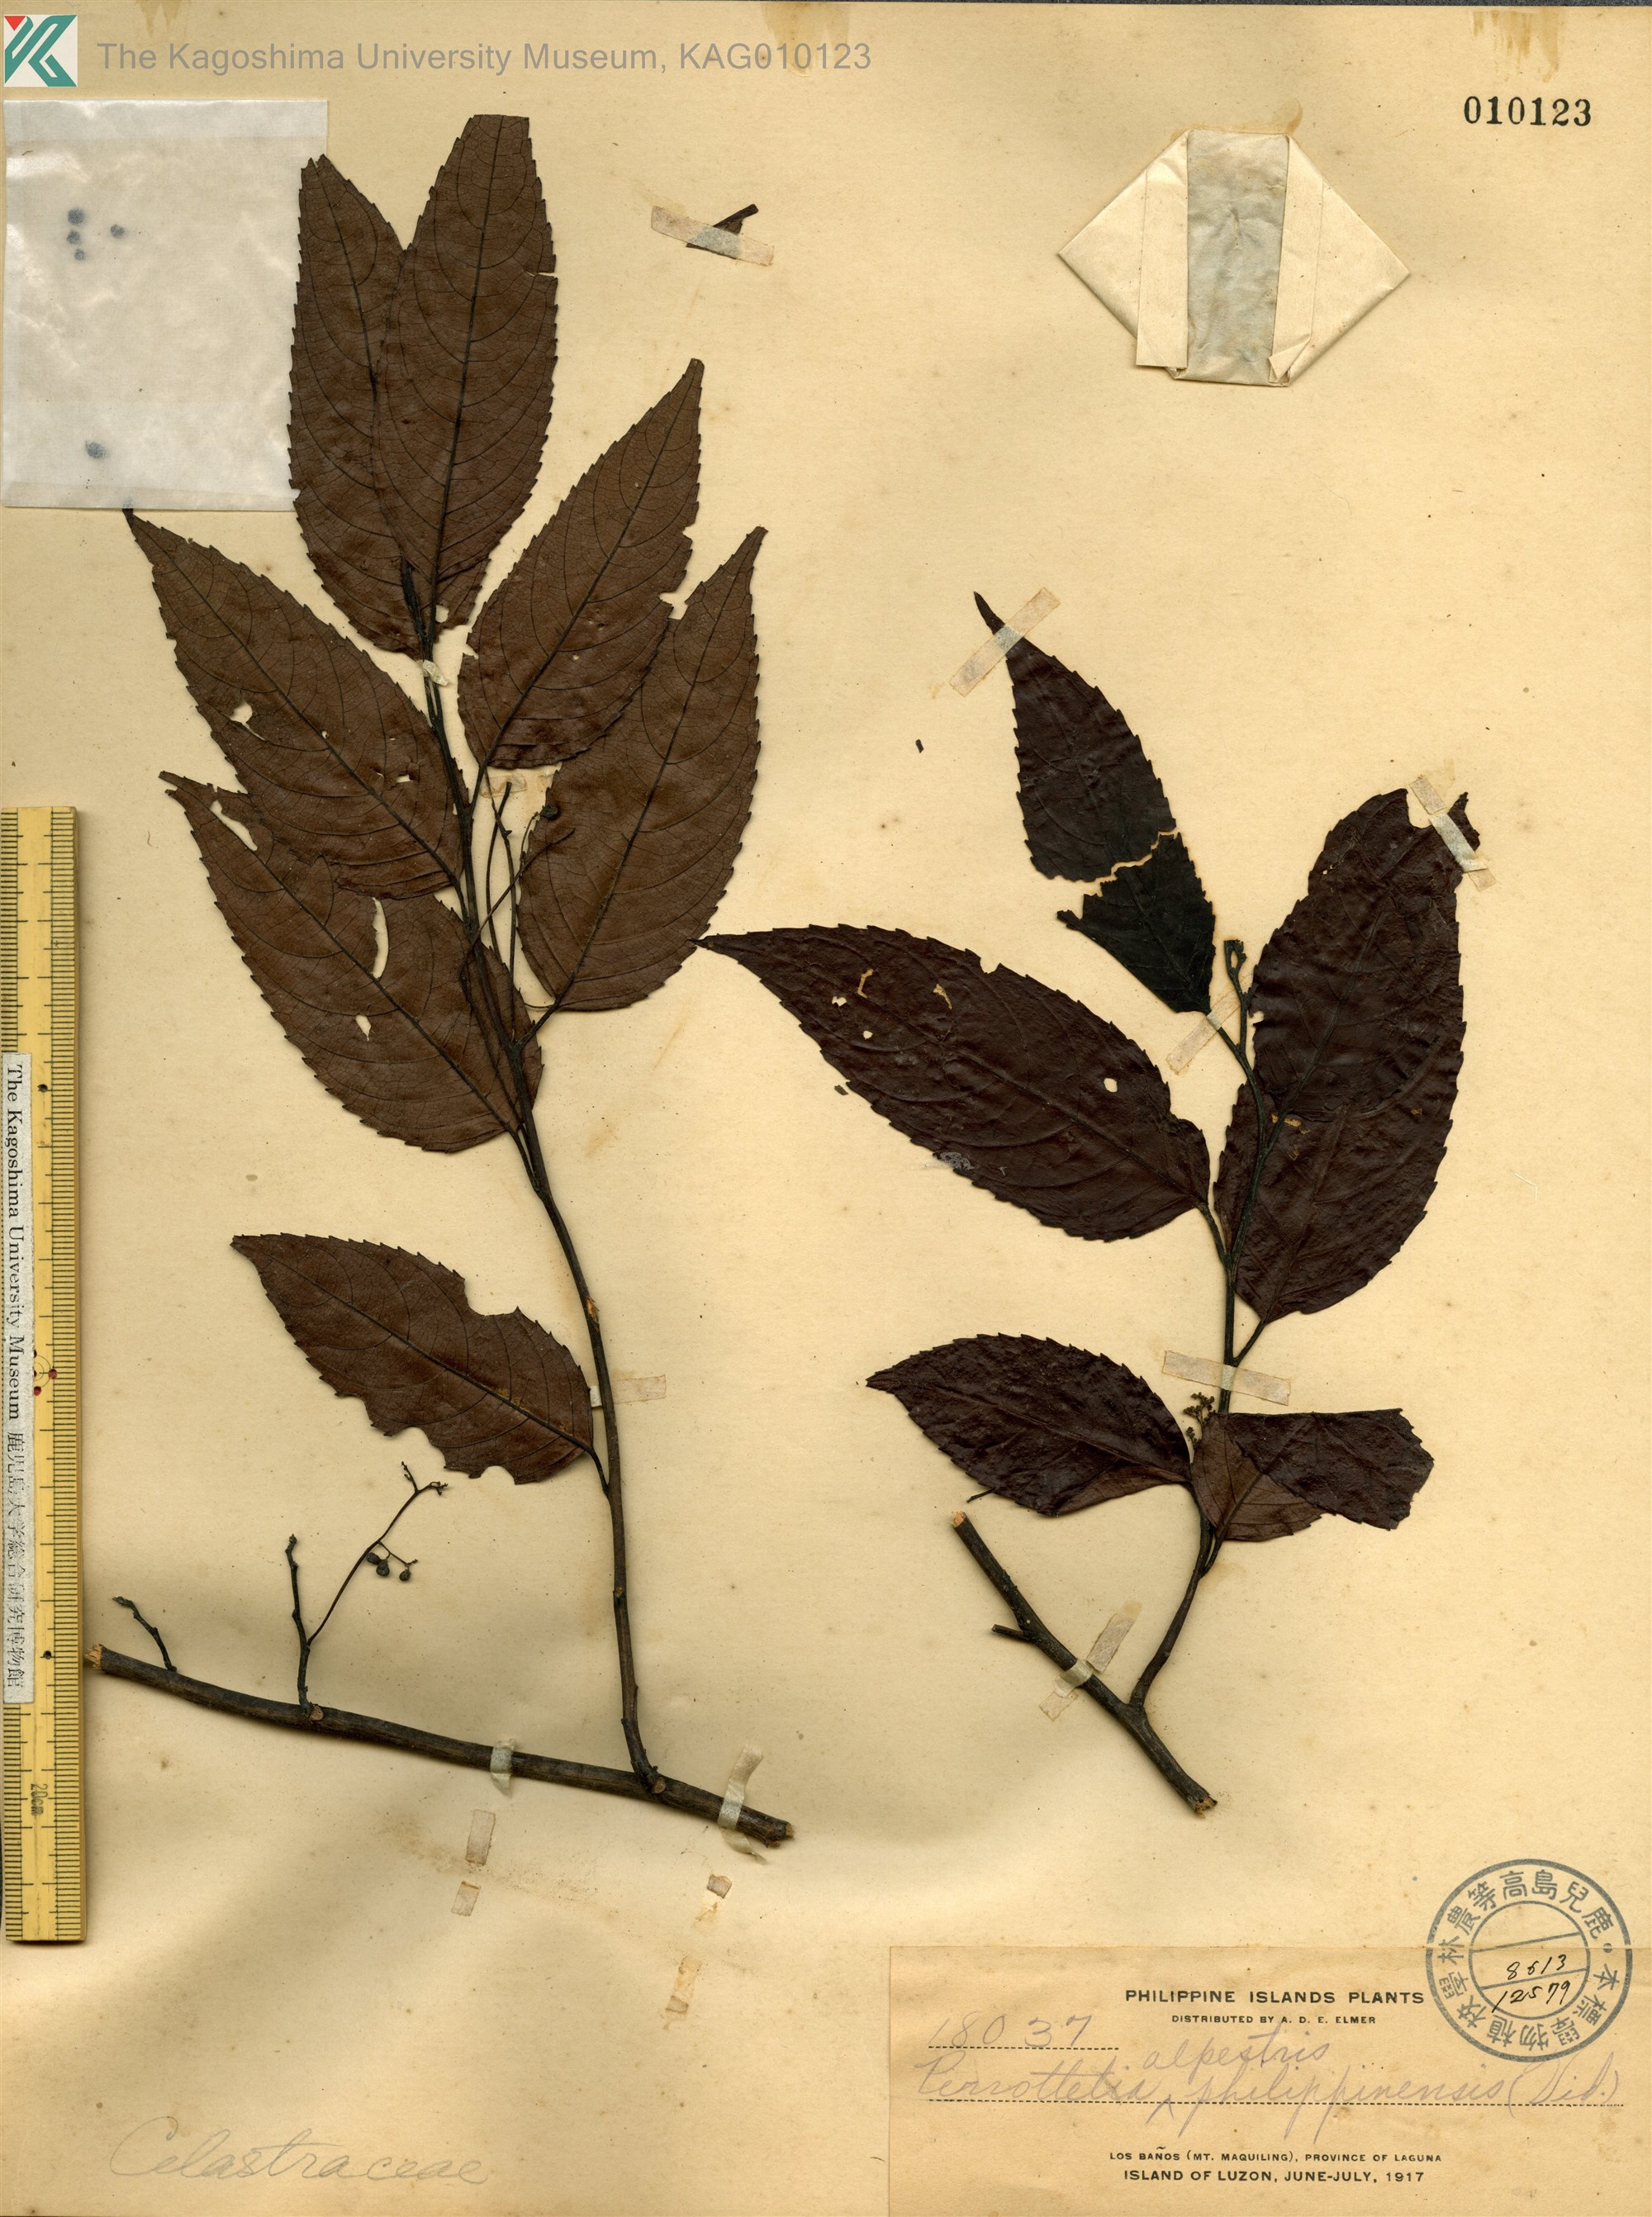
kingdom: Plantae
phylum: Tracheophyta
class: Magnoliopsida
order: Huerteales
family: Dipentodontaceae
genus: Perrottetia
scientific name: Perrottetia arisanensis
